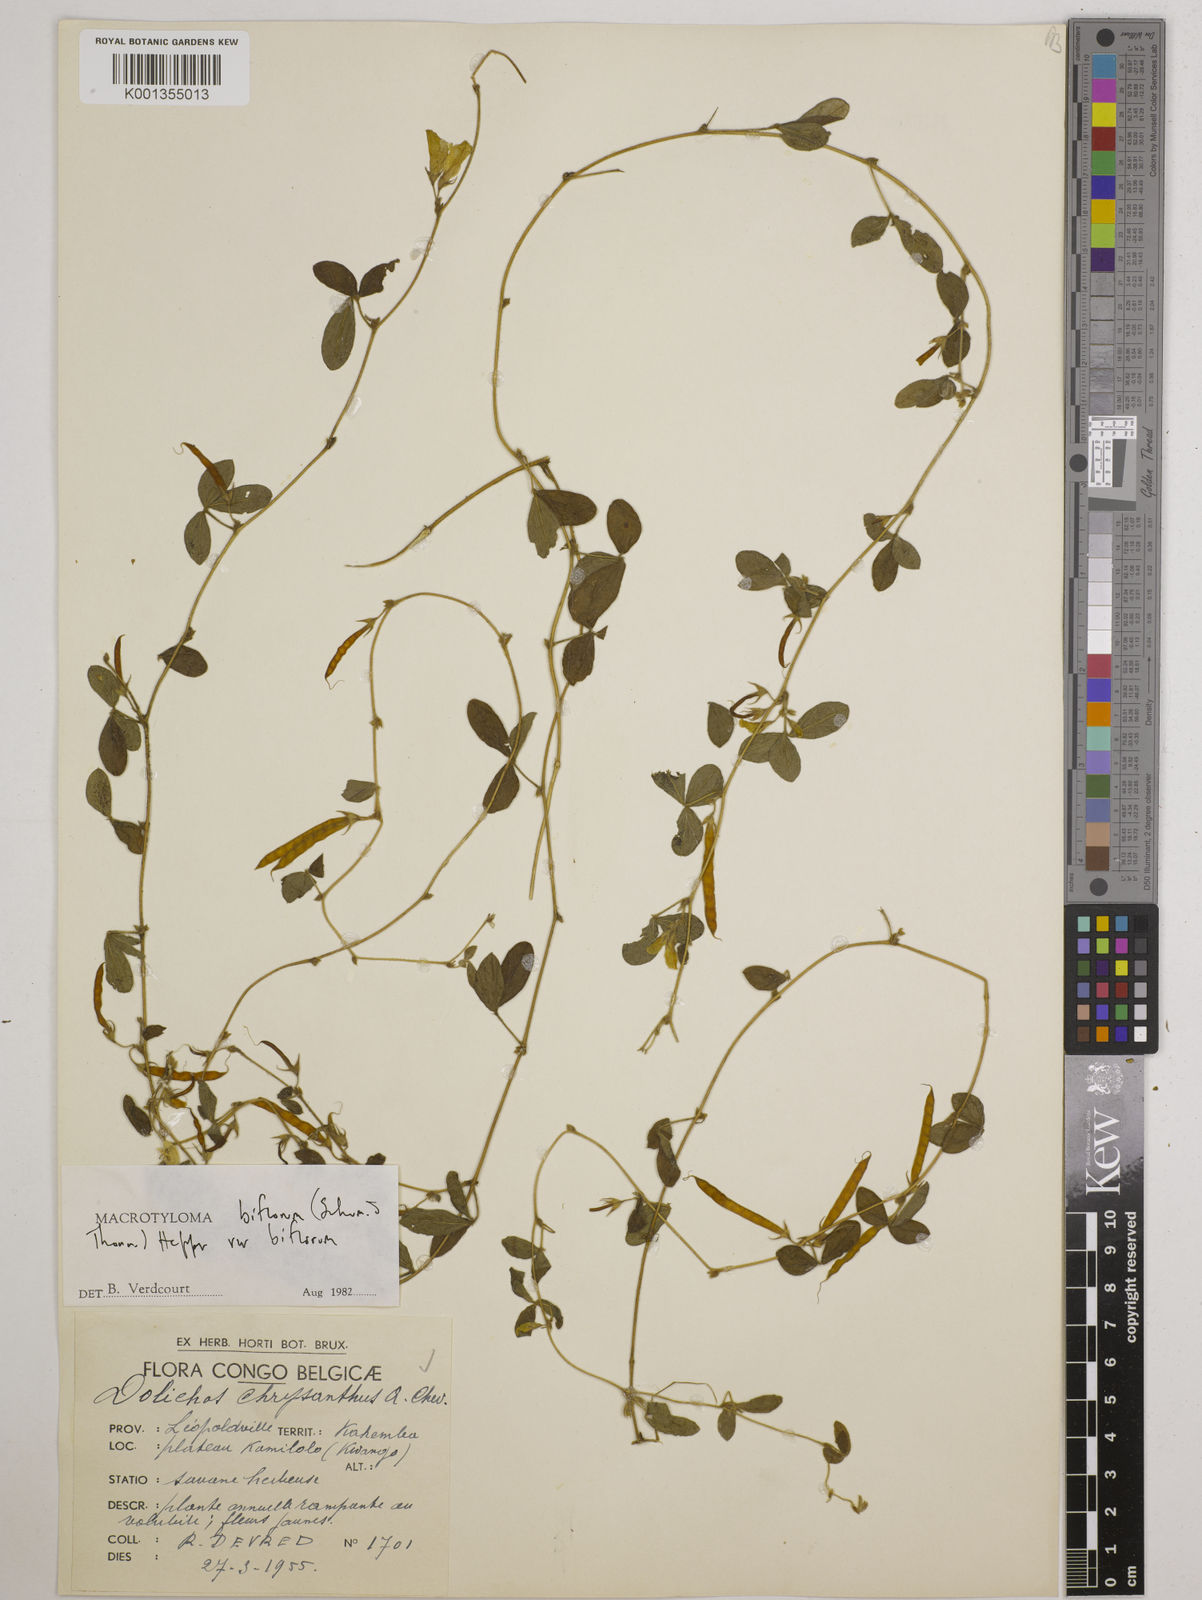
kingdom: Plantae
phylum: Tracheophyta
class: Magnoliopsida
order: Fabales
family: Fabaceae
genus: Macrotyloma
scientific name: Macrotyloma biflorum
